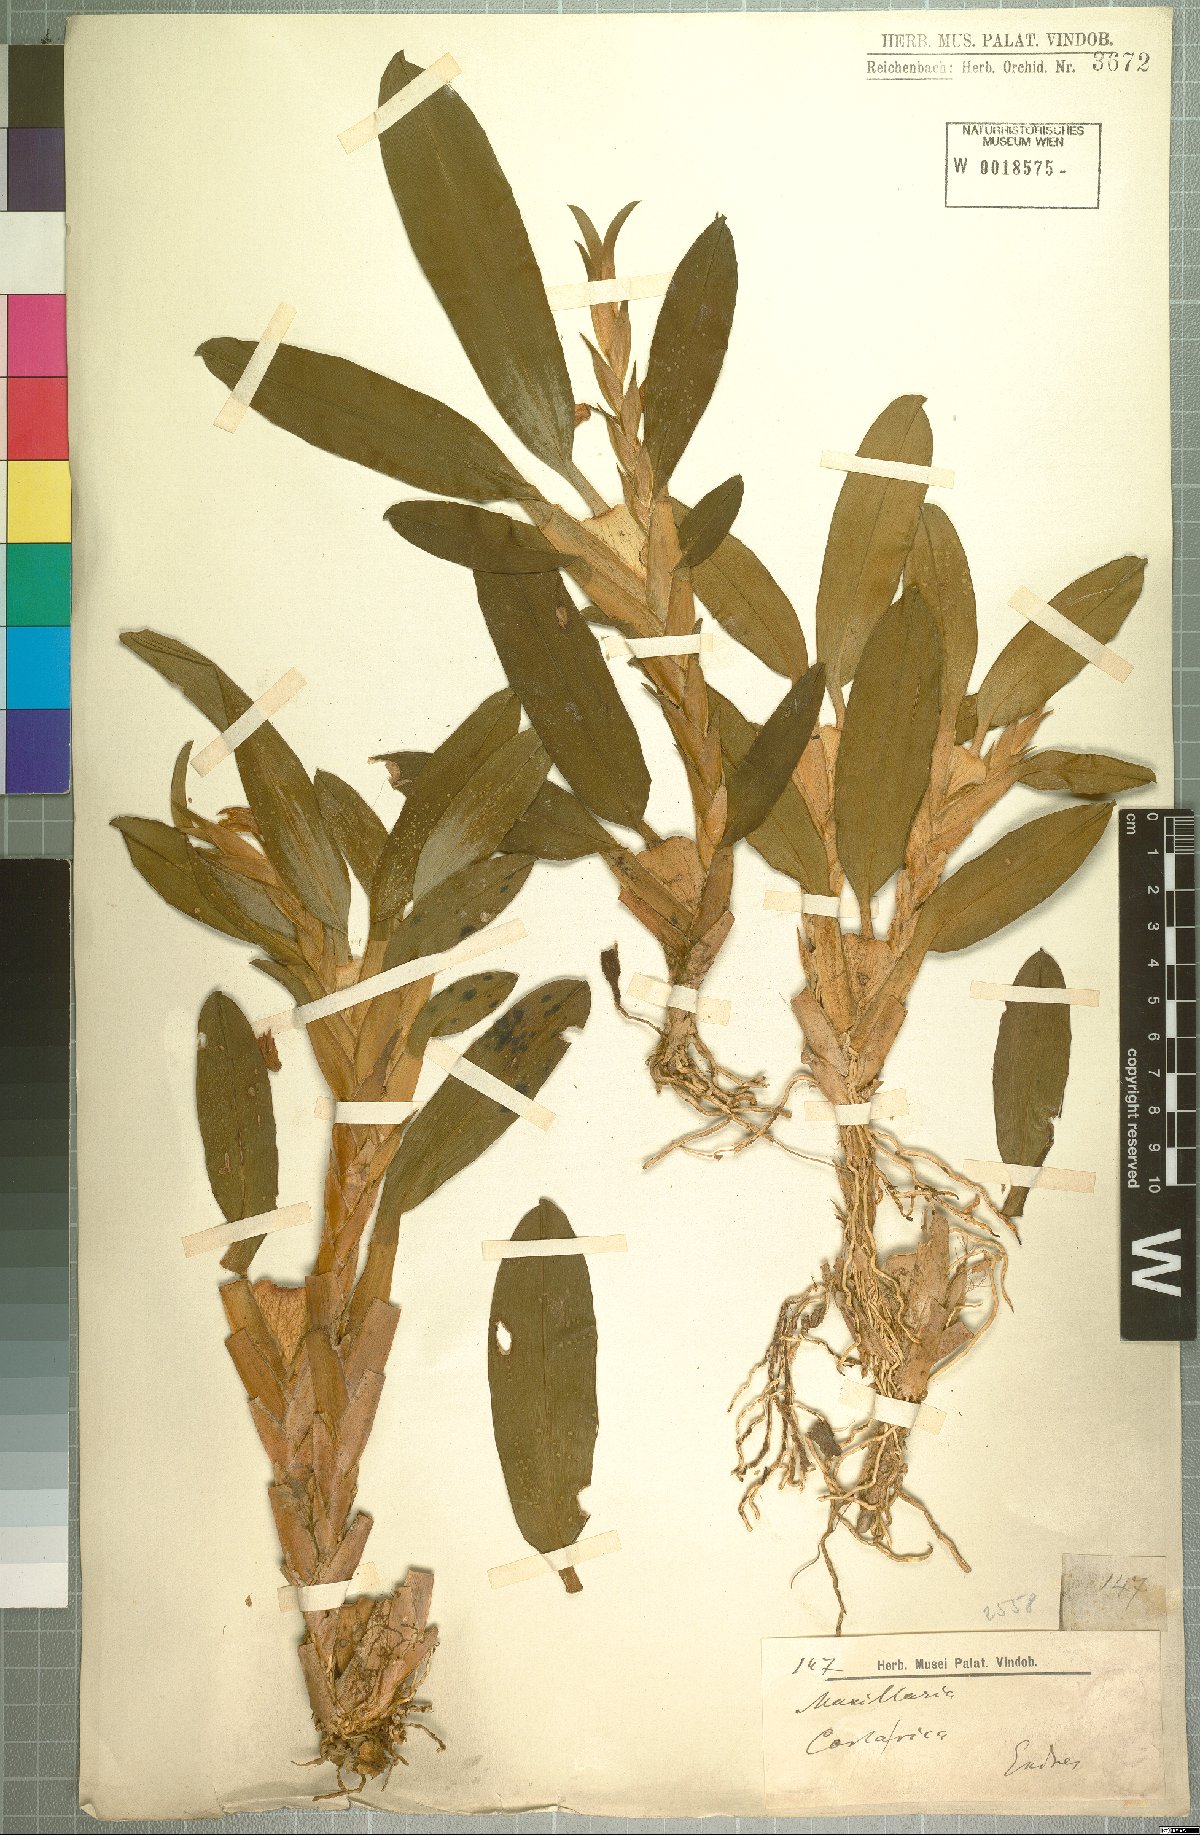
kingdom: Plantae
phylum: Tracheophyta
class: Liliopsida
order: Asparagales
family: Orchidaceae
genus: Maxillaria
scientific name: Maxillaria
